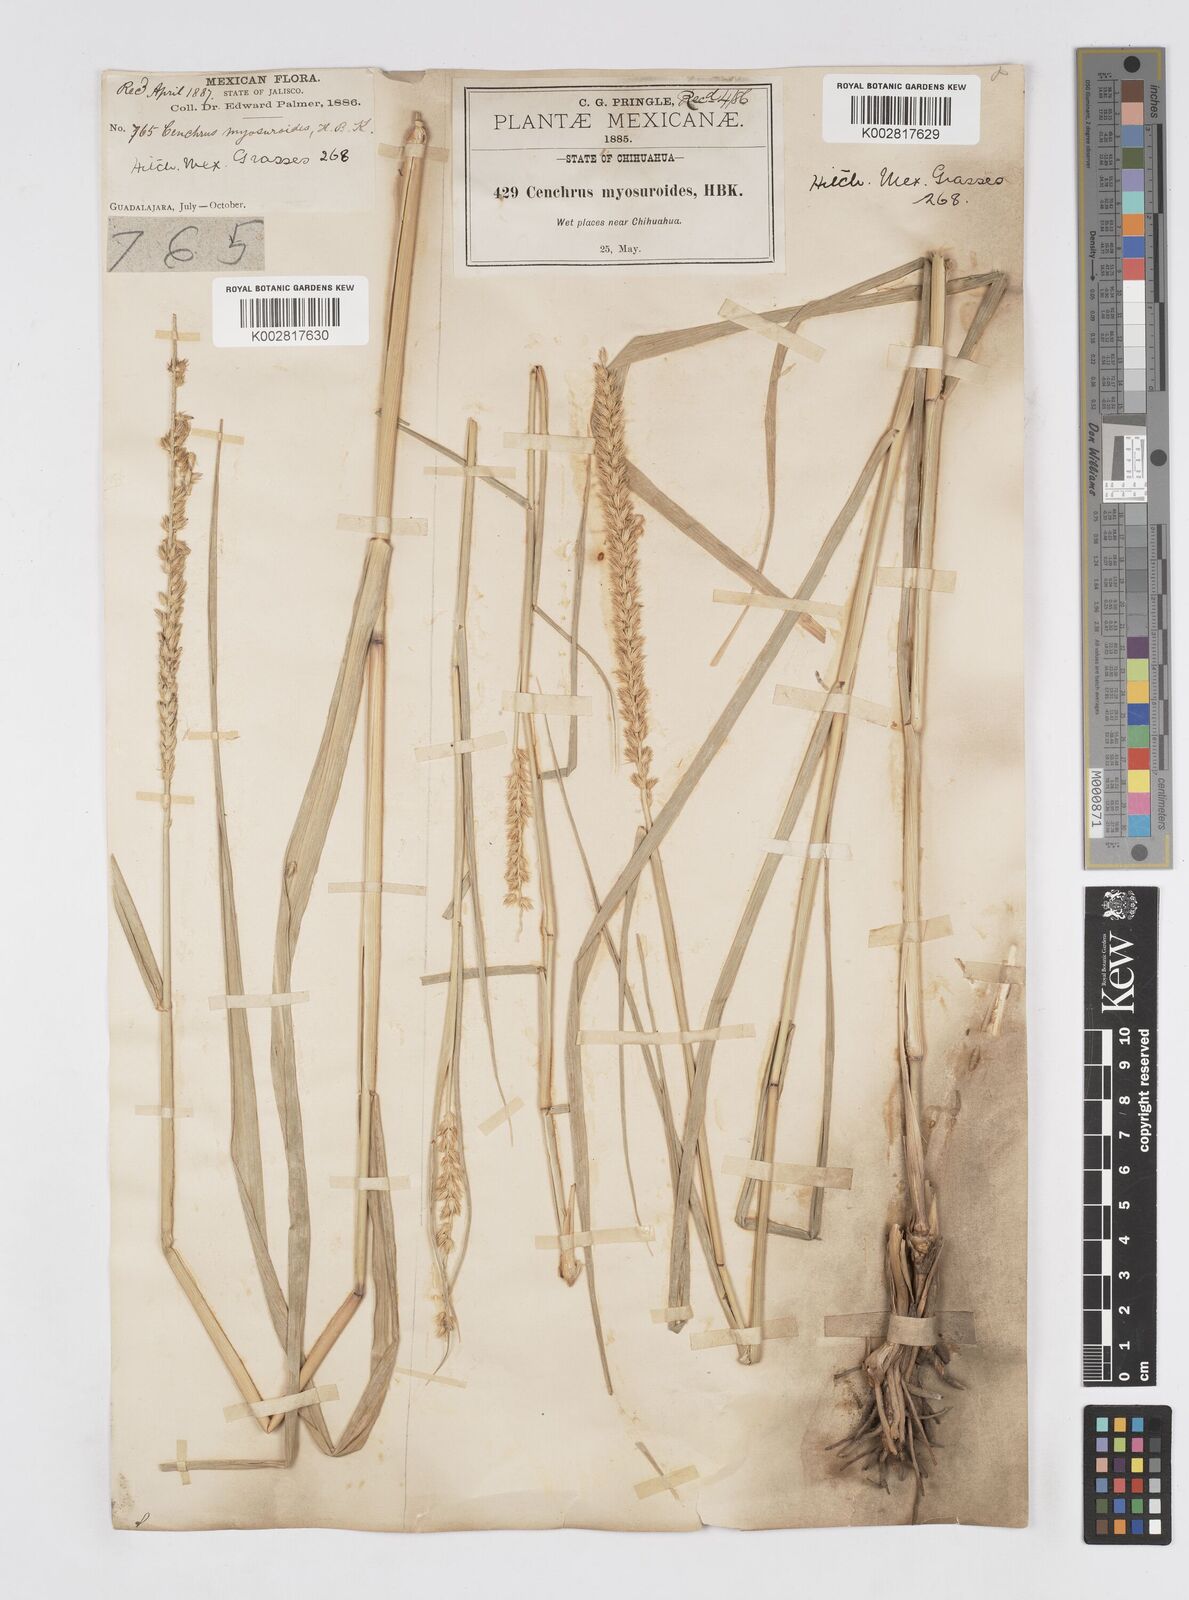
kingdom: Plantae
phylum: Tracheophyta
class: Liliopsida
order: Poales
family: Poaceae
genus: Cenchrus
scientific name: Cenchrus myosuroides
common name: Big sandbur
